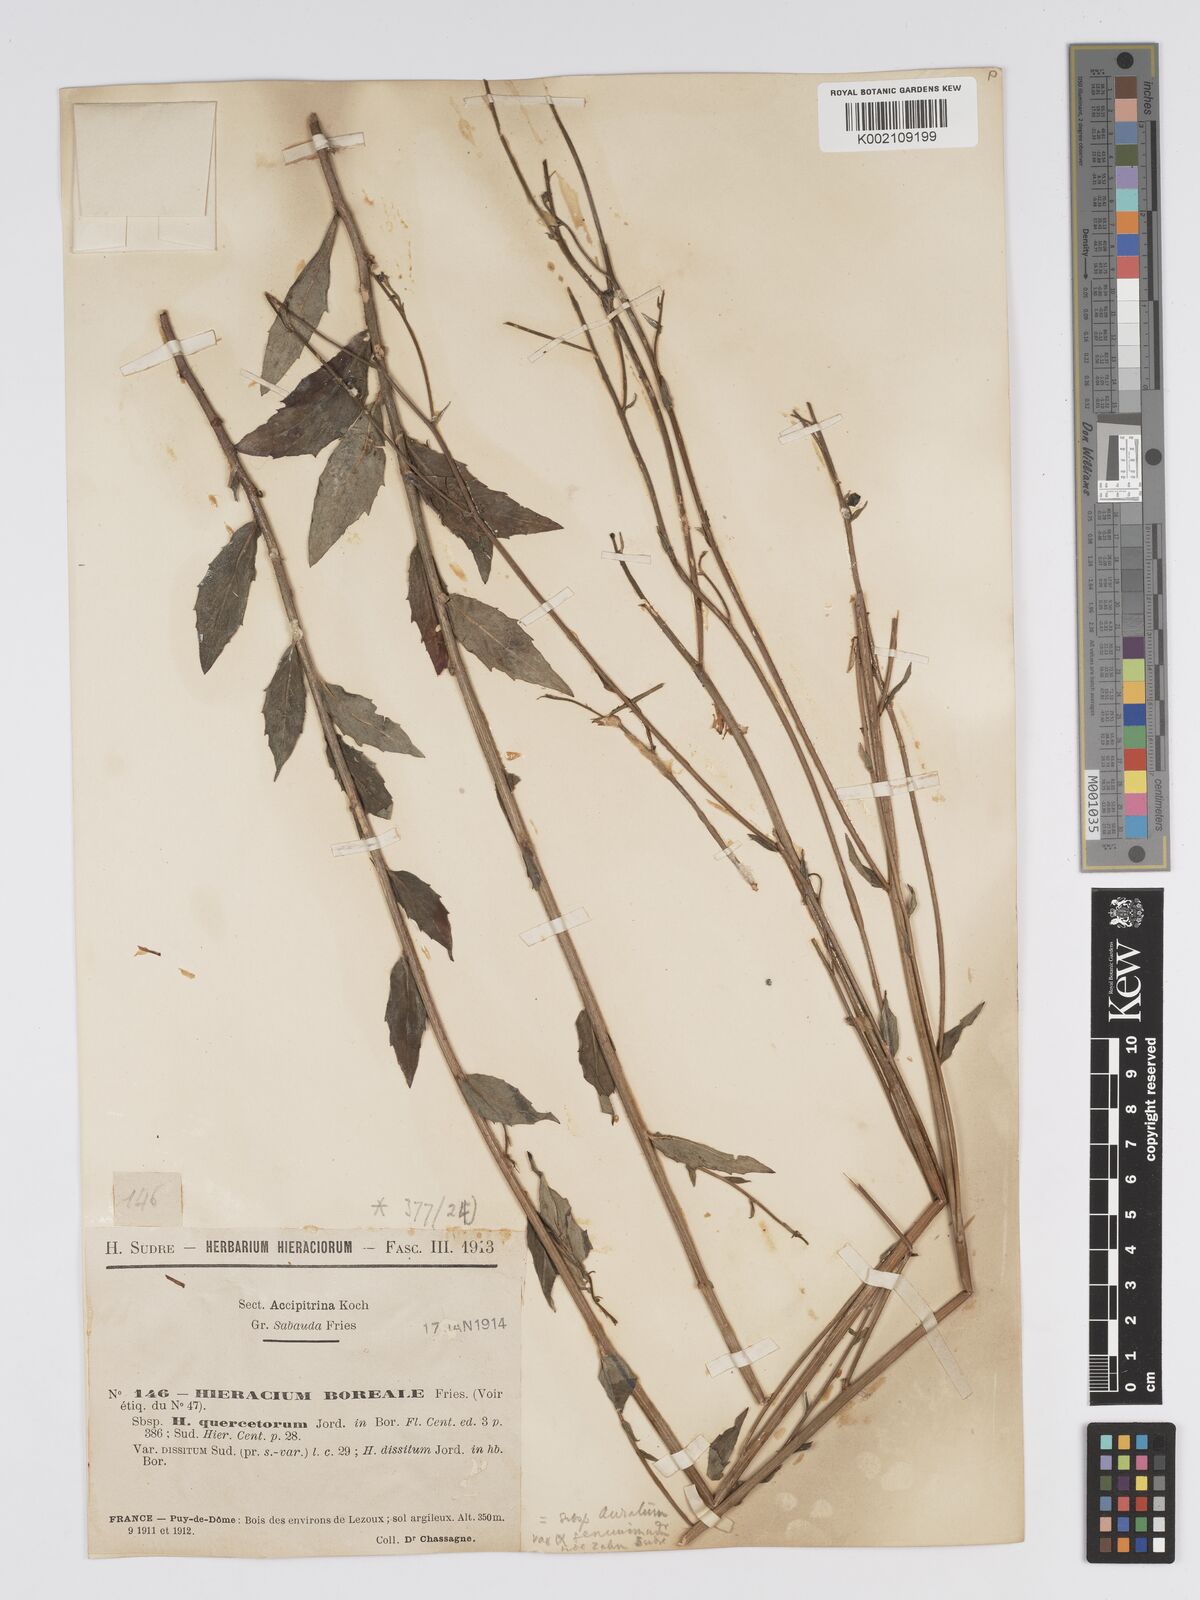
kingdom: Plantae
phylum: Tracheophyta
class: Magnoliopsida
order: Asterales
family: Asteraceae
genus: Hieracium
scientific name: Hieracium sabaudum
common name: New england hawkweed
